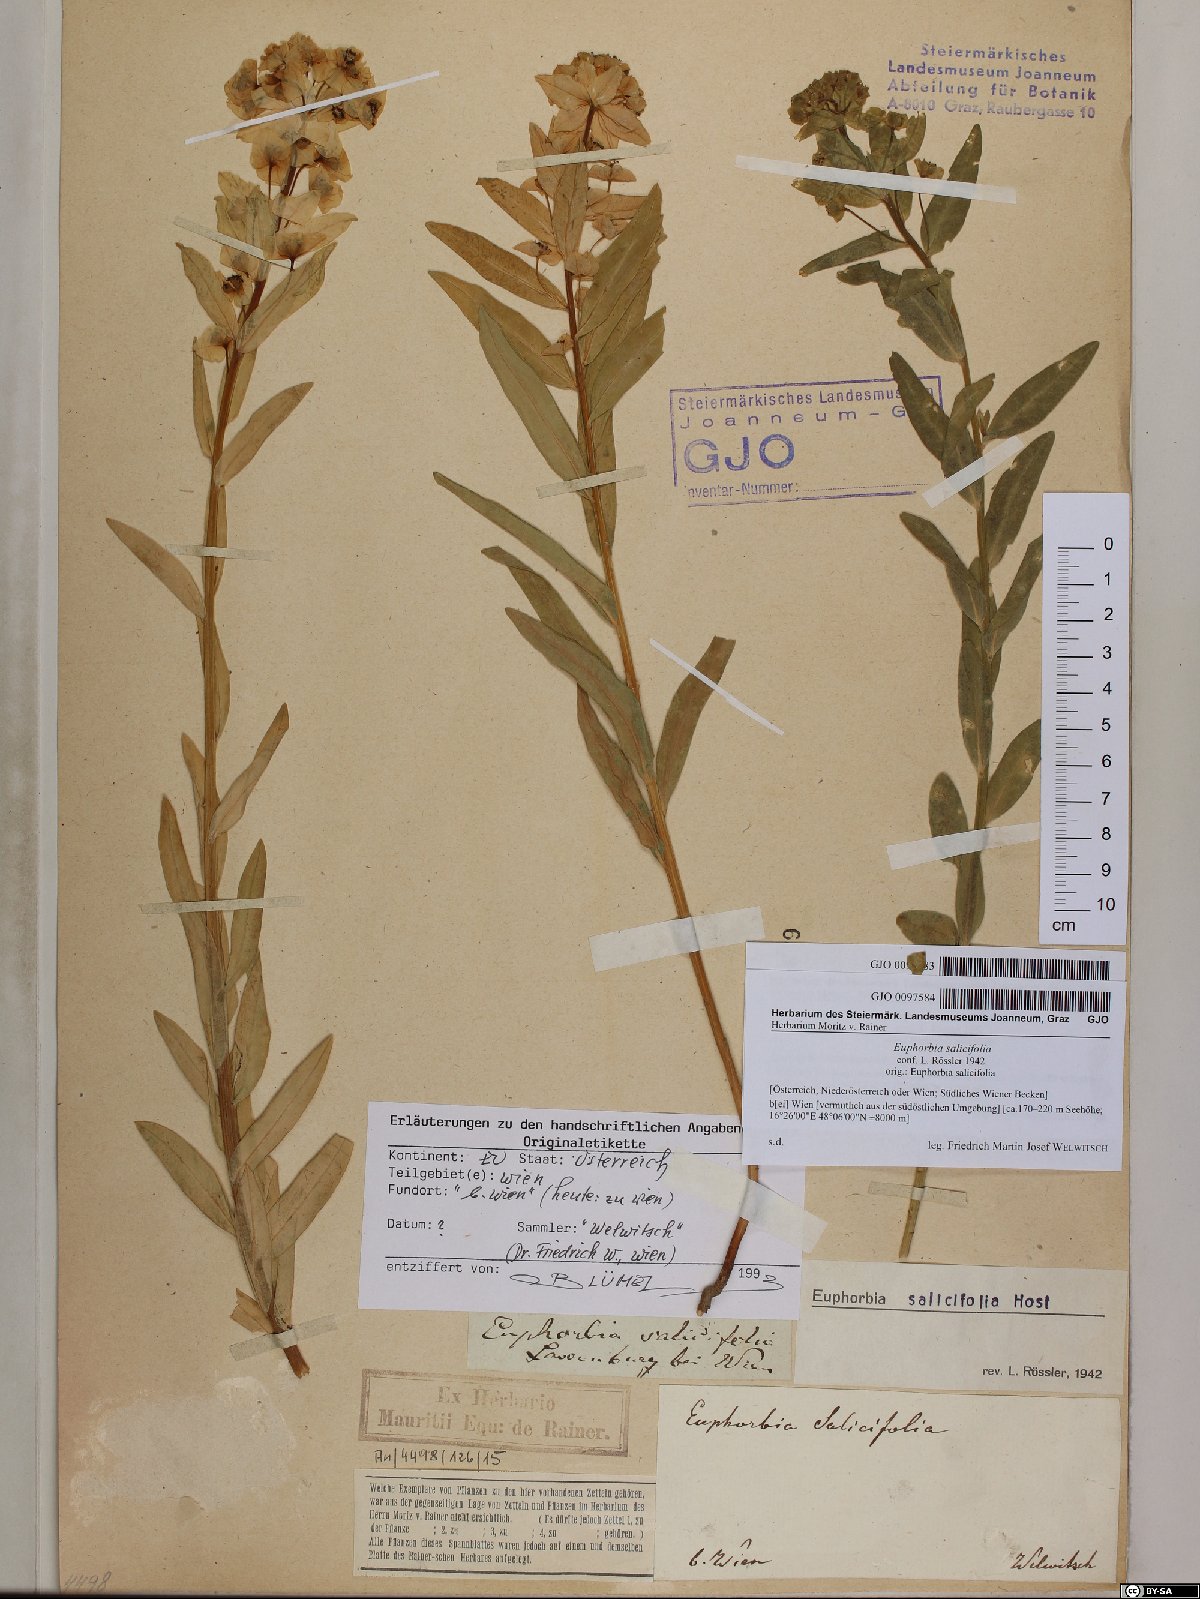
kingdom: Plantae
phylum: Tracheophyta
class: Magnoliopsida
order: Malpighiales
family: Euphorbiaceae
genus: Euphorbia
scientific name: Euphorbia salicifolia
